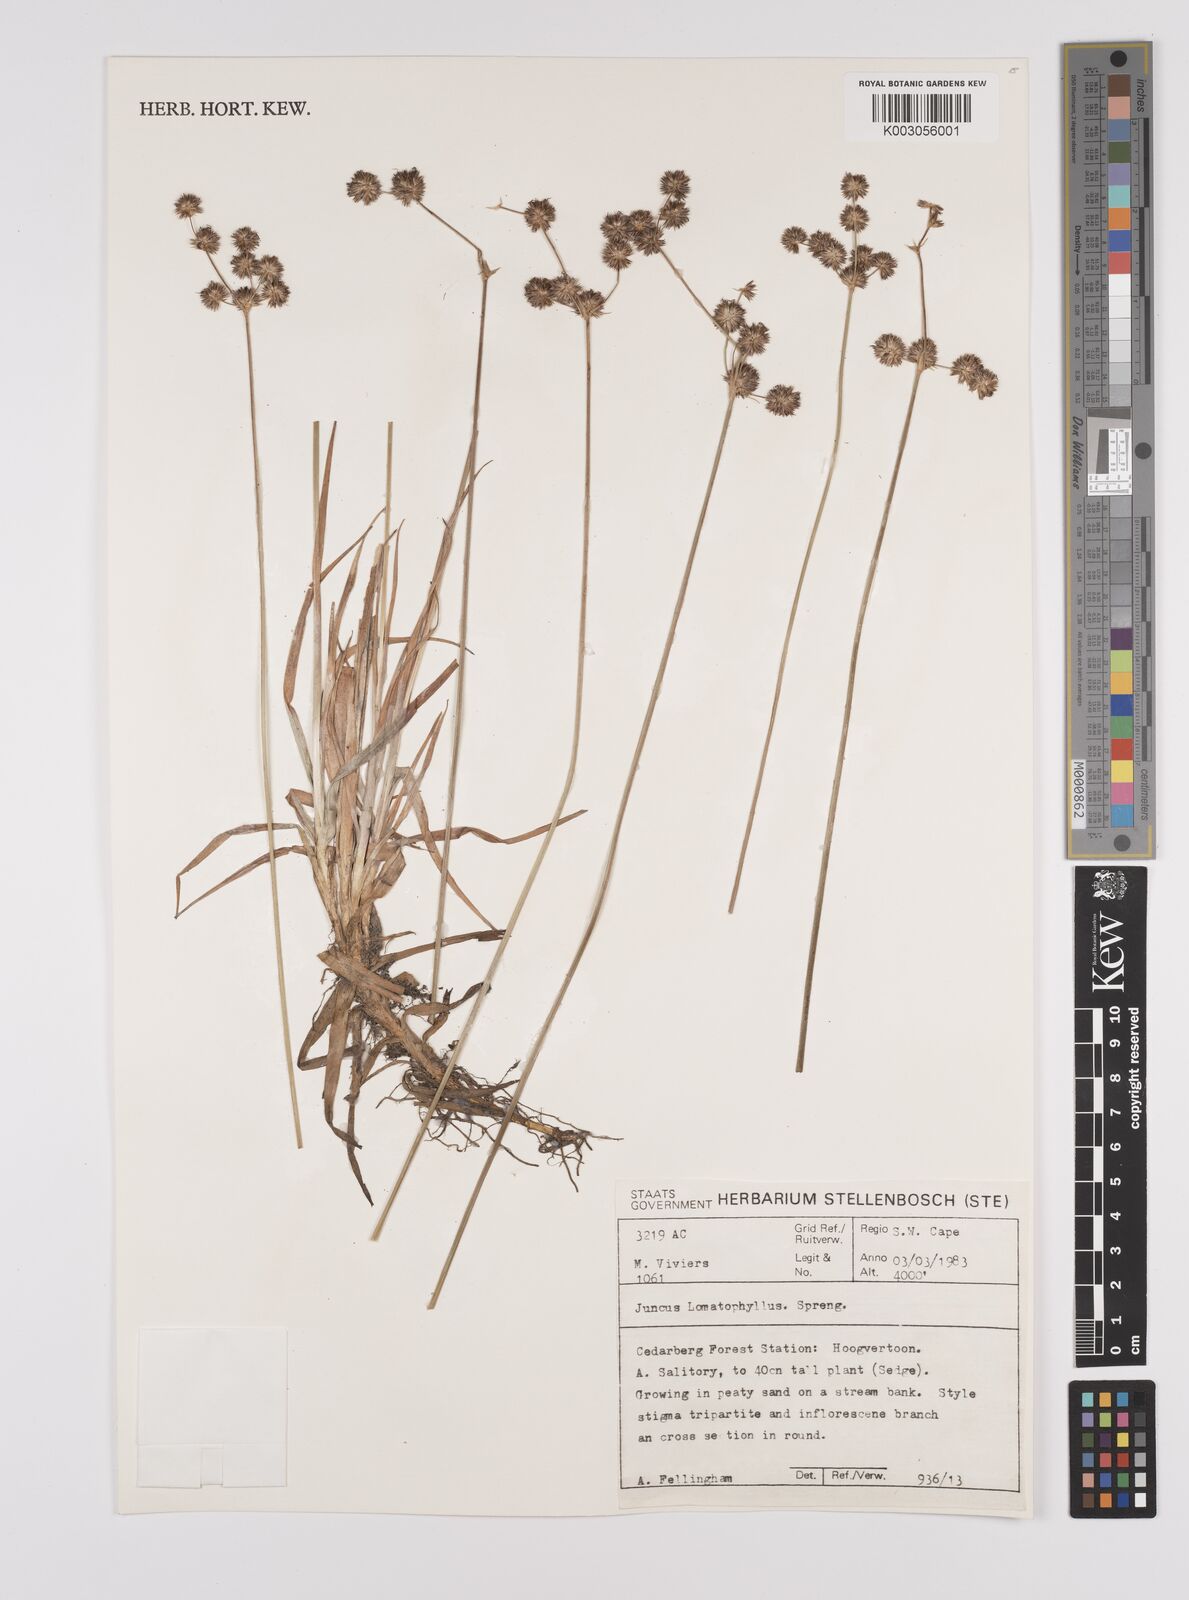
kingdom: Plantae
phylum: Tracheophyta
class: Liliopsida
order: Poales
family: Juncaceae
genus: Juncus
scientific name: Juncus lomatophyllus
